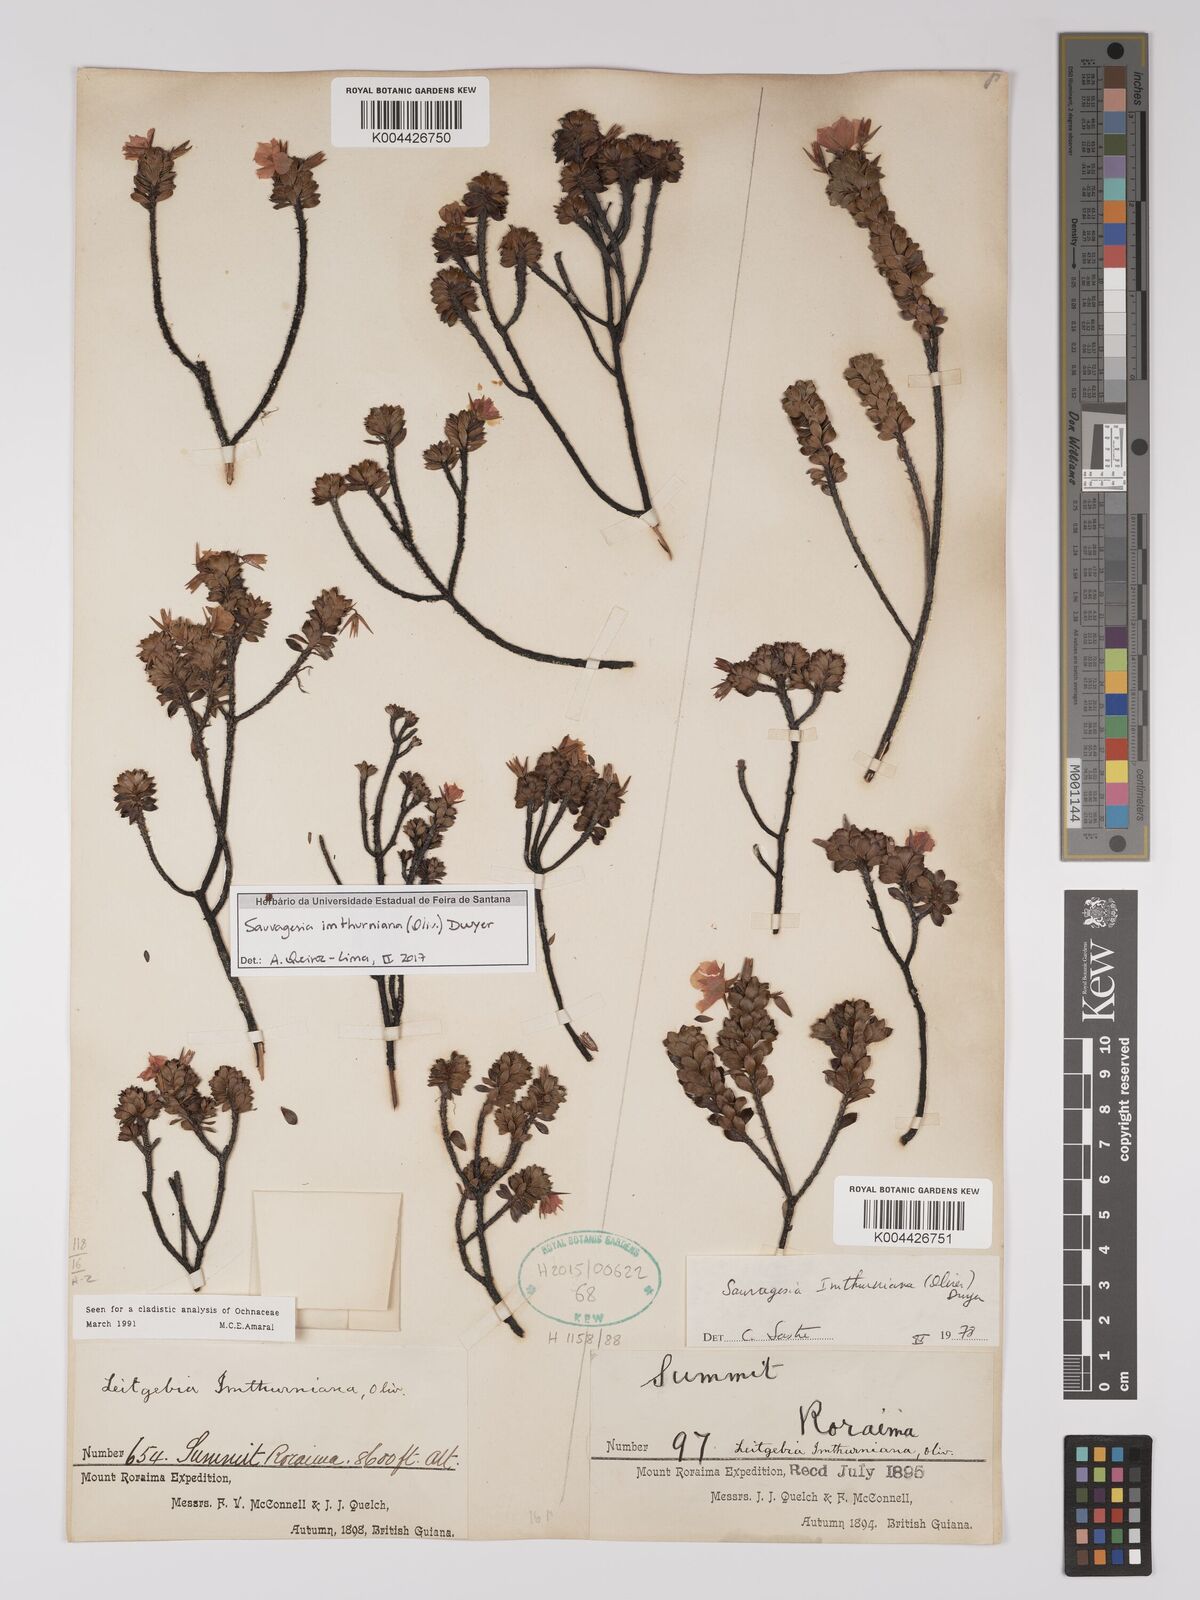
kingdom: Plantae
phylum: Tracheophyta
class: Magnoliopsida
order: Malpighiales
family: Ochnaceae
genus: Sauvagesia
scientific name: Sauvagesia imthurniana
